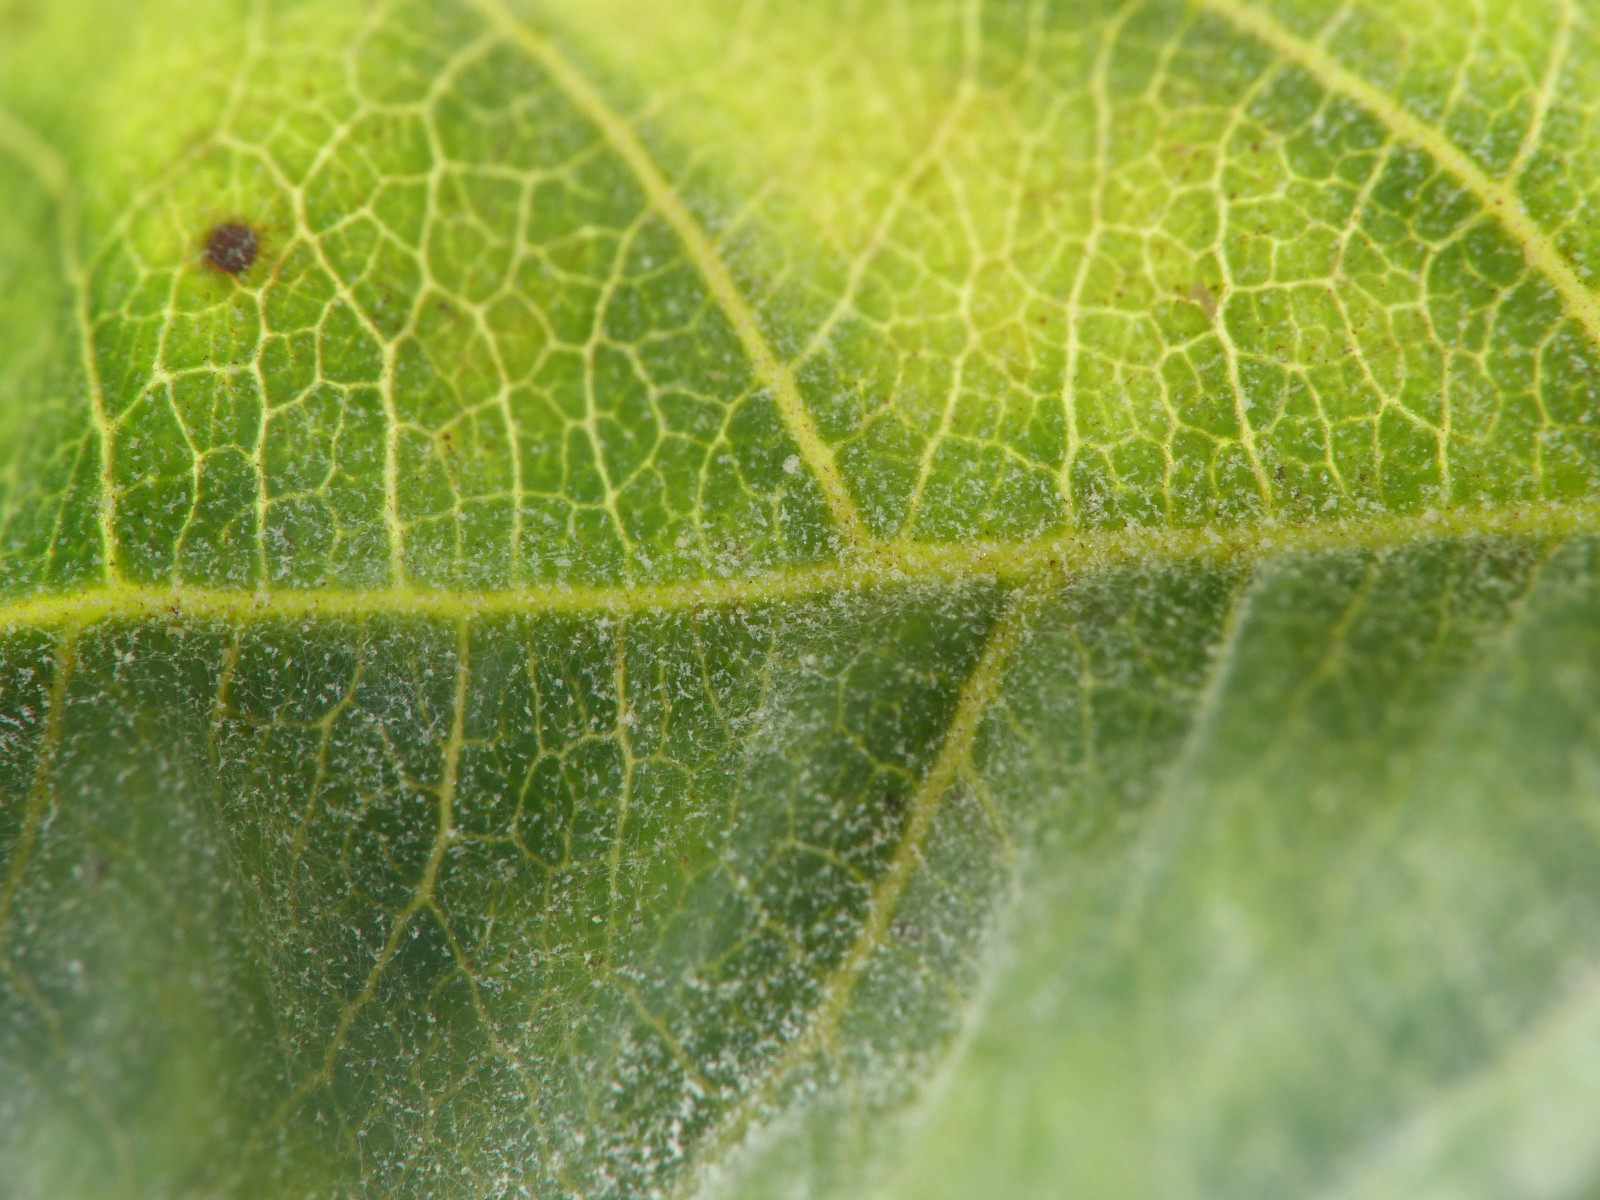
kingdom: Fungi
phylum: Ascomycota
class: Leotiomycetes
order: Helotiales
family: Erysiphaceae
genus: Erysiphe
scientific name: Erysiphe divaricata
